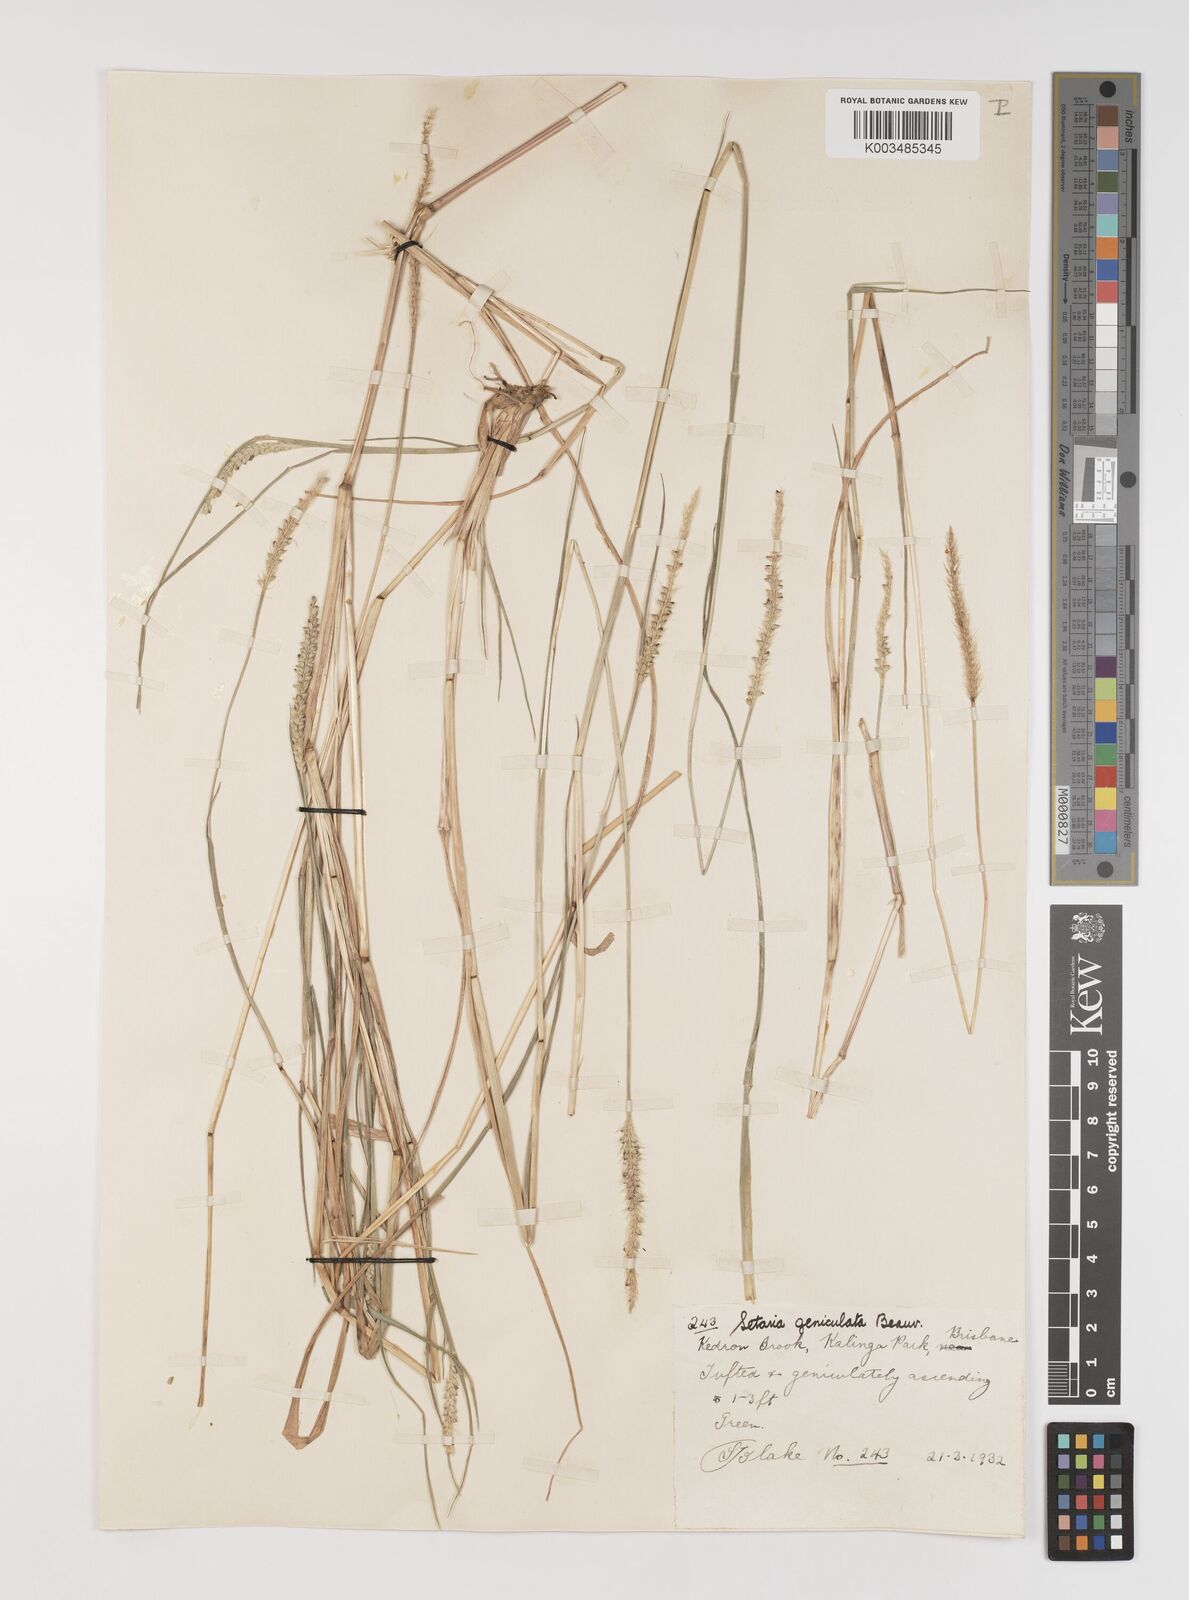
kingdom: Plantae
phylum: Tracheophyta
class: Liliopsida
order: Poales
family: Poaceae
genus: Setaria
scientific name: Setaria parviflora
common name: Knotroot bristle-grass
